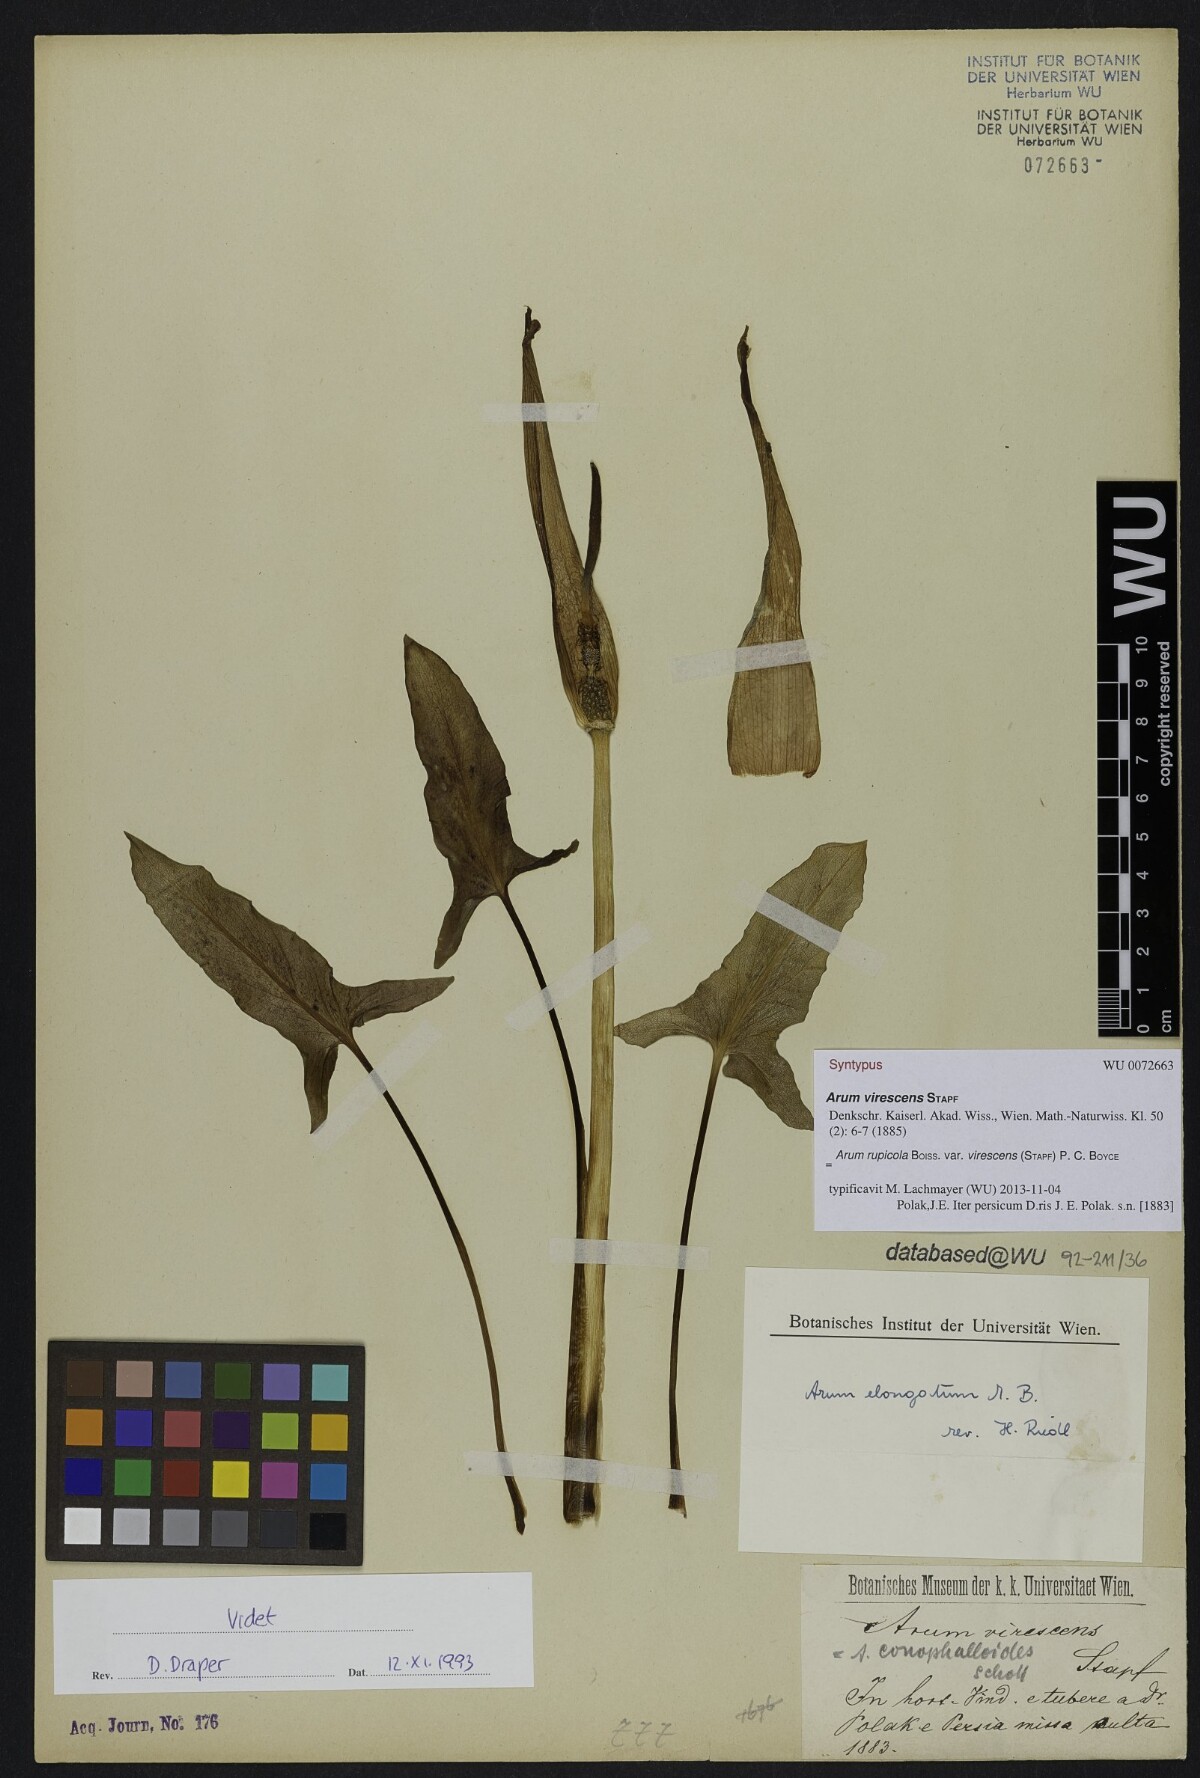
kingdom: Plantae
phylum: Tracheophyta
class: Liliopsida
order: Alismatales
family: Araceae
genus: Arum
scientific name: Arum rupicola
